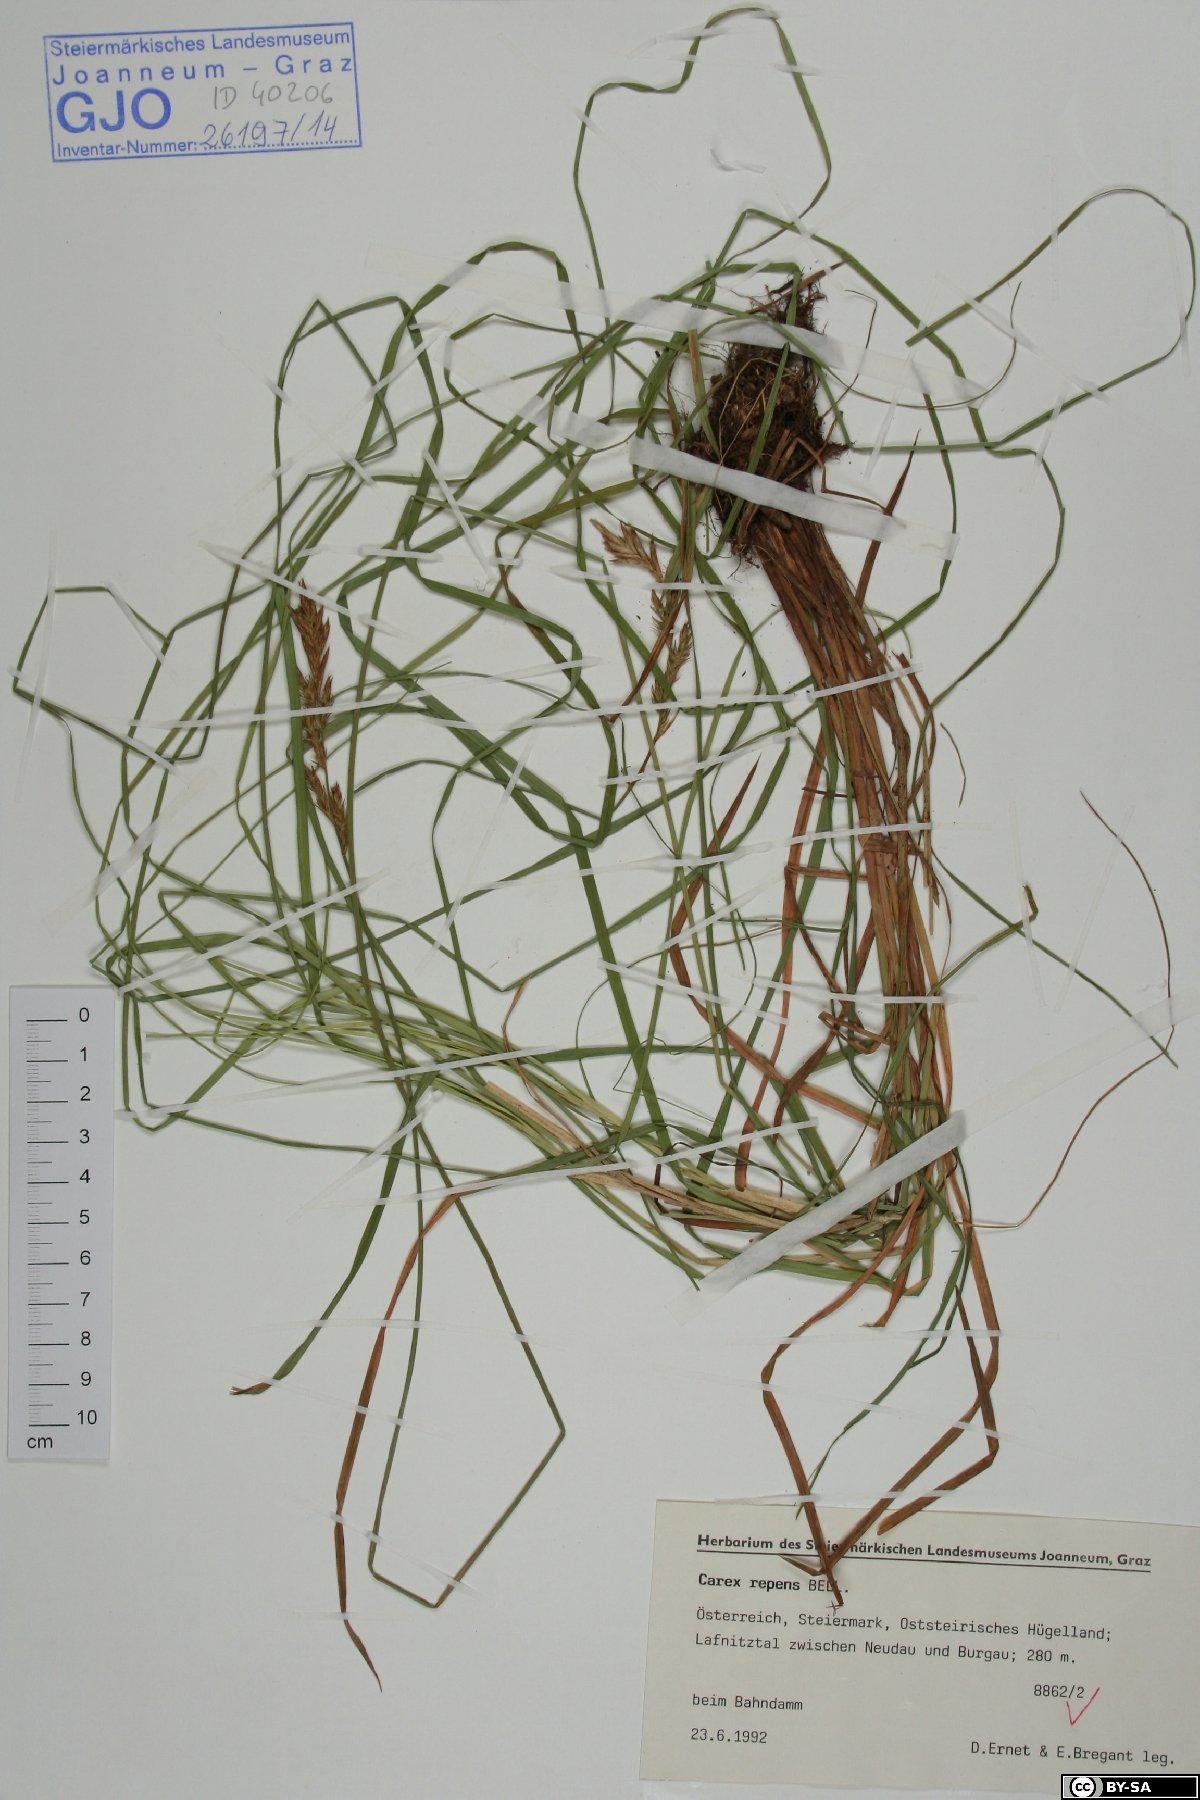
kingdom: Plantae
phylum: Tracheophyta
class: Liliopsida
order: Poales
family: Cyperaceae
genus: Carex
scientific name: Carex repens
